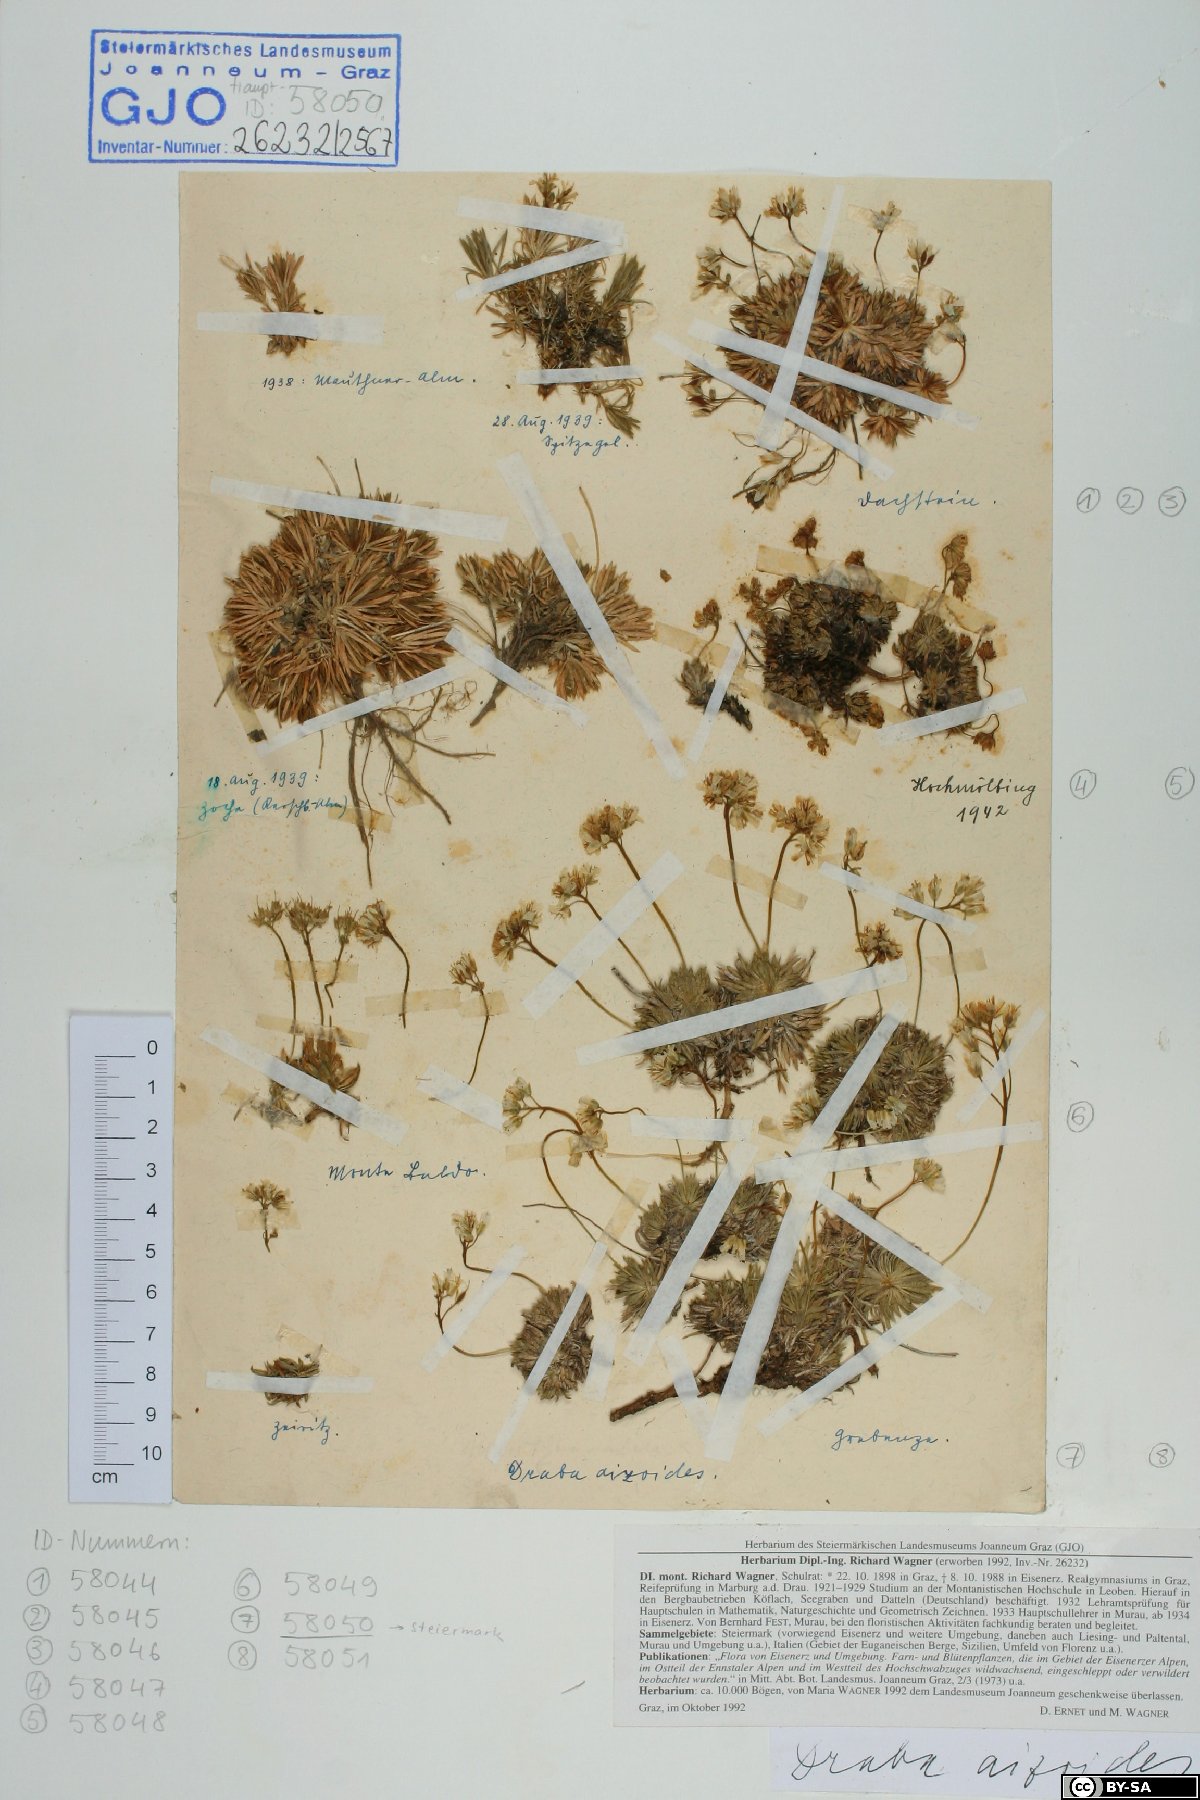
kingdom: Plantae
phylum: Tracheophyta
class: Magnoliopsida
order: Brassicales
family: Brassicaceae
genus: Draba
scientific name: Draba aizoides
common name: Yellow whitlowgrass
